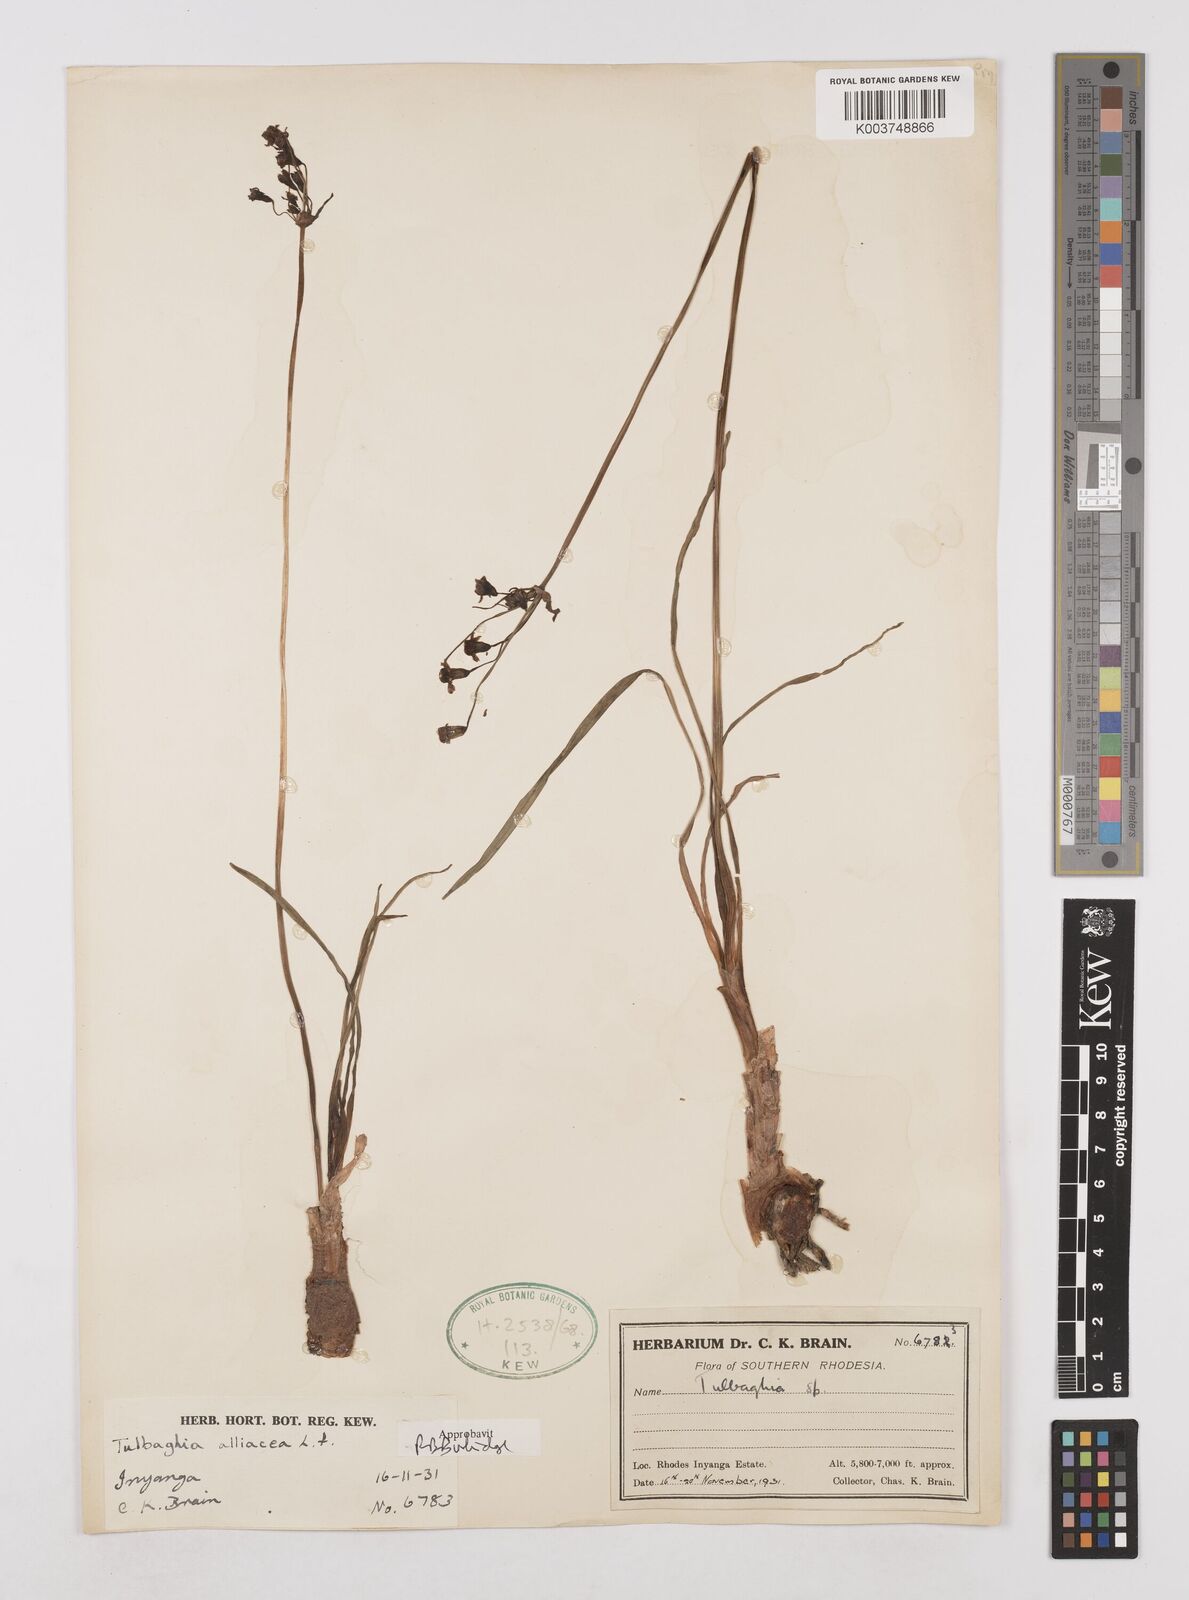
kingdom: Plantae
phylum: Tracheophyta
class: Liliopsida
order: Asparagales
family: Amaryllidaceae
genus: Tulbaghia
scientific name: Tulbaghia alliacea
